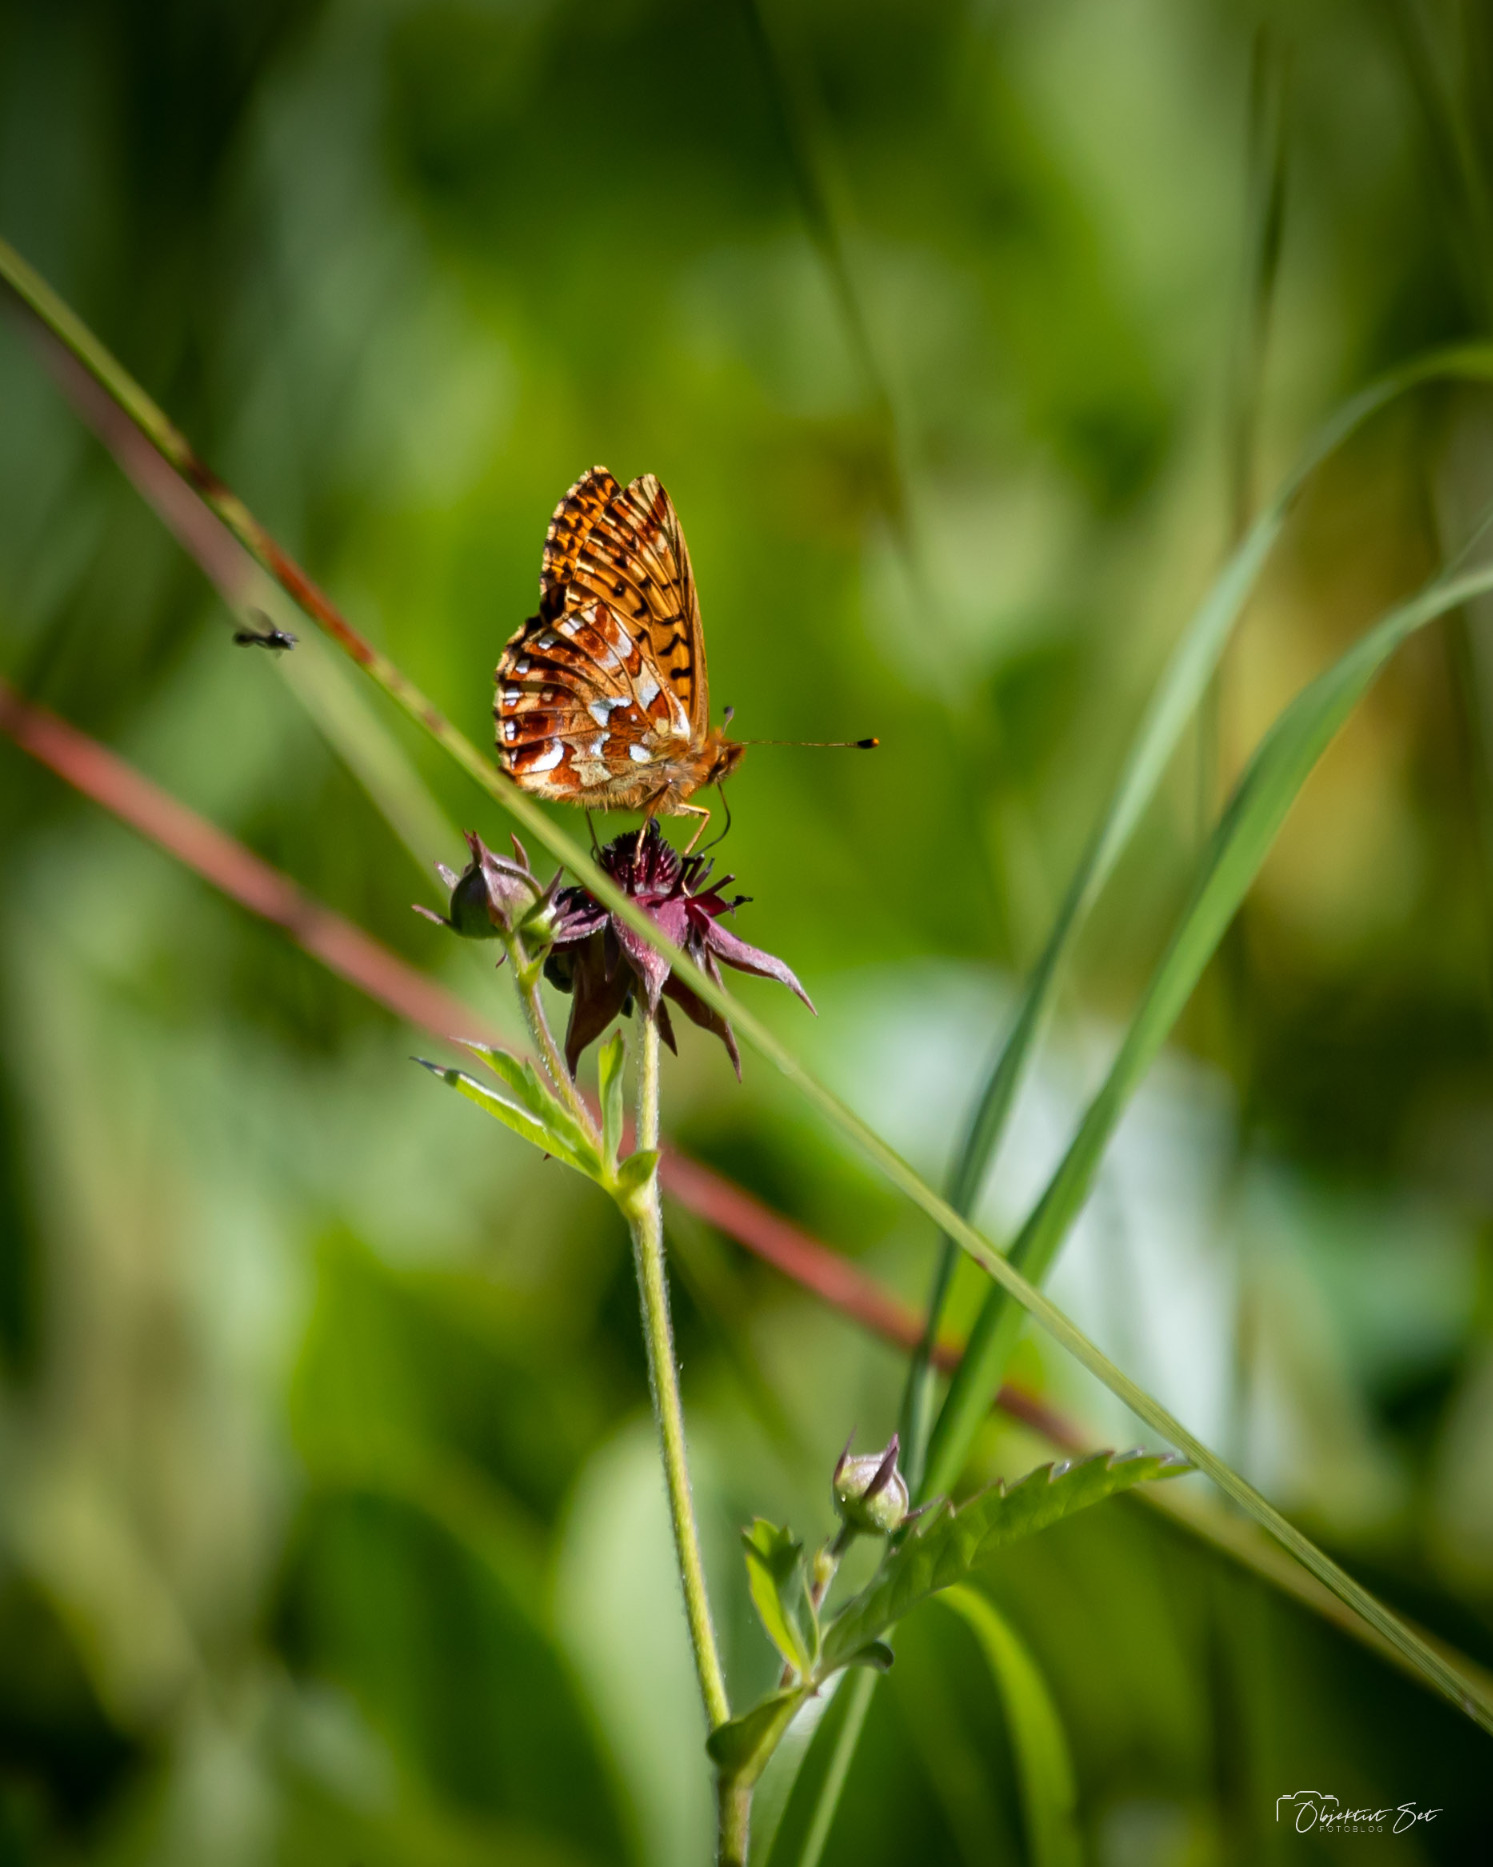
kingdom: Animalia
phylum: Arthropoda
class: Insecta
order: Lepidoptera
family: Nymphalidae
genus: Boloria
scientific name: Boloria aquilonaris
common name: Moseperlemorsommerfugl
